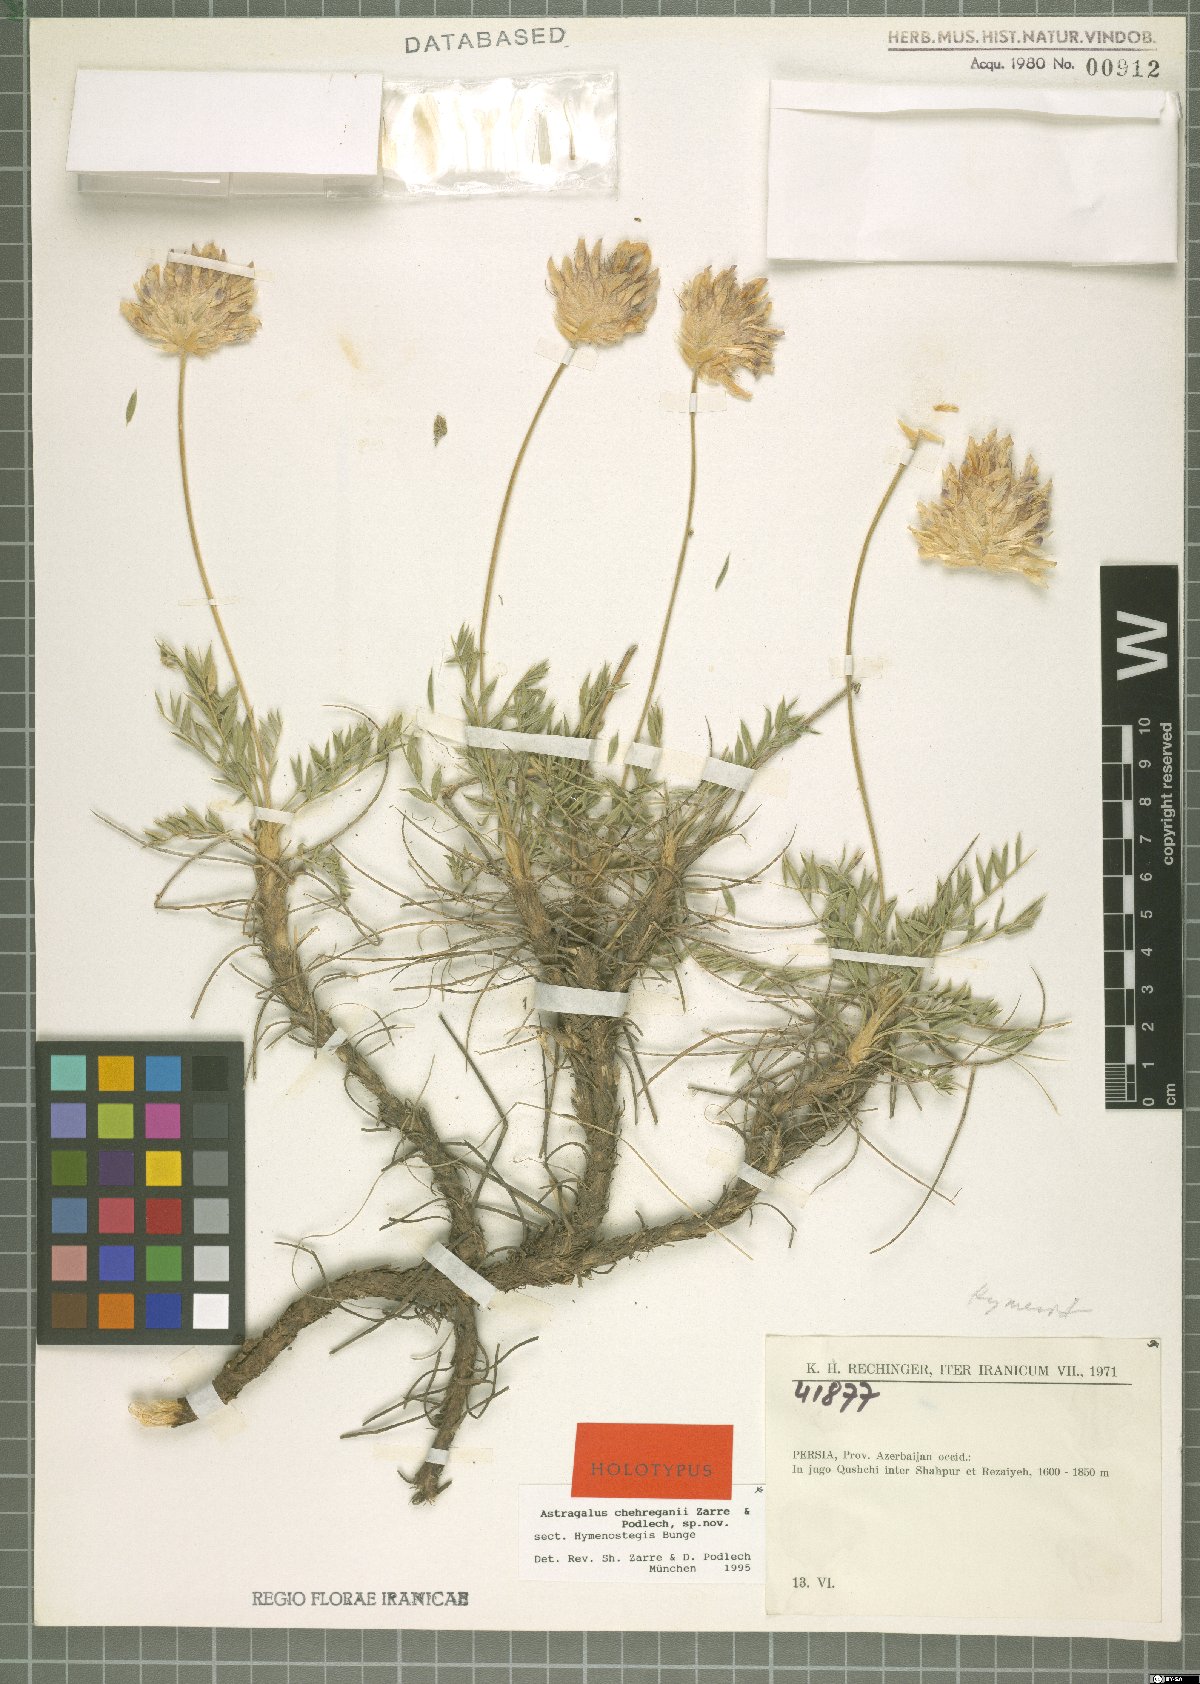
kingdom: Plantae
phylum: Tracheophyta
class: Magnoliopsida
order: Fabales
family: Fabaceae
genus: Astragalus
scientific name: Astragalus chehreganii
